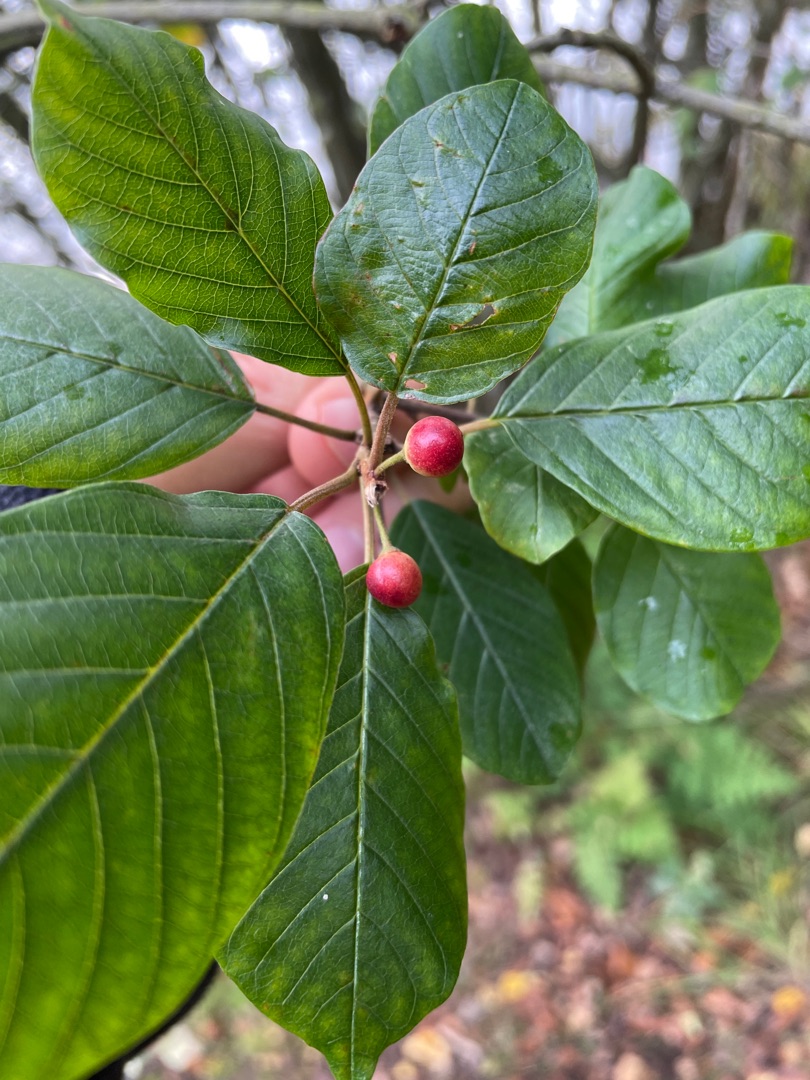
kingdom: Plantae
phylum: Tracheophyta
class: Magnoliopsida
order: Rosales
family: Rhamnaceae
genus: Frangula
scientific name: Frangula alnus
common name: Tørst
